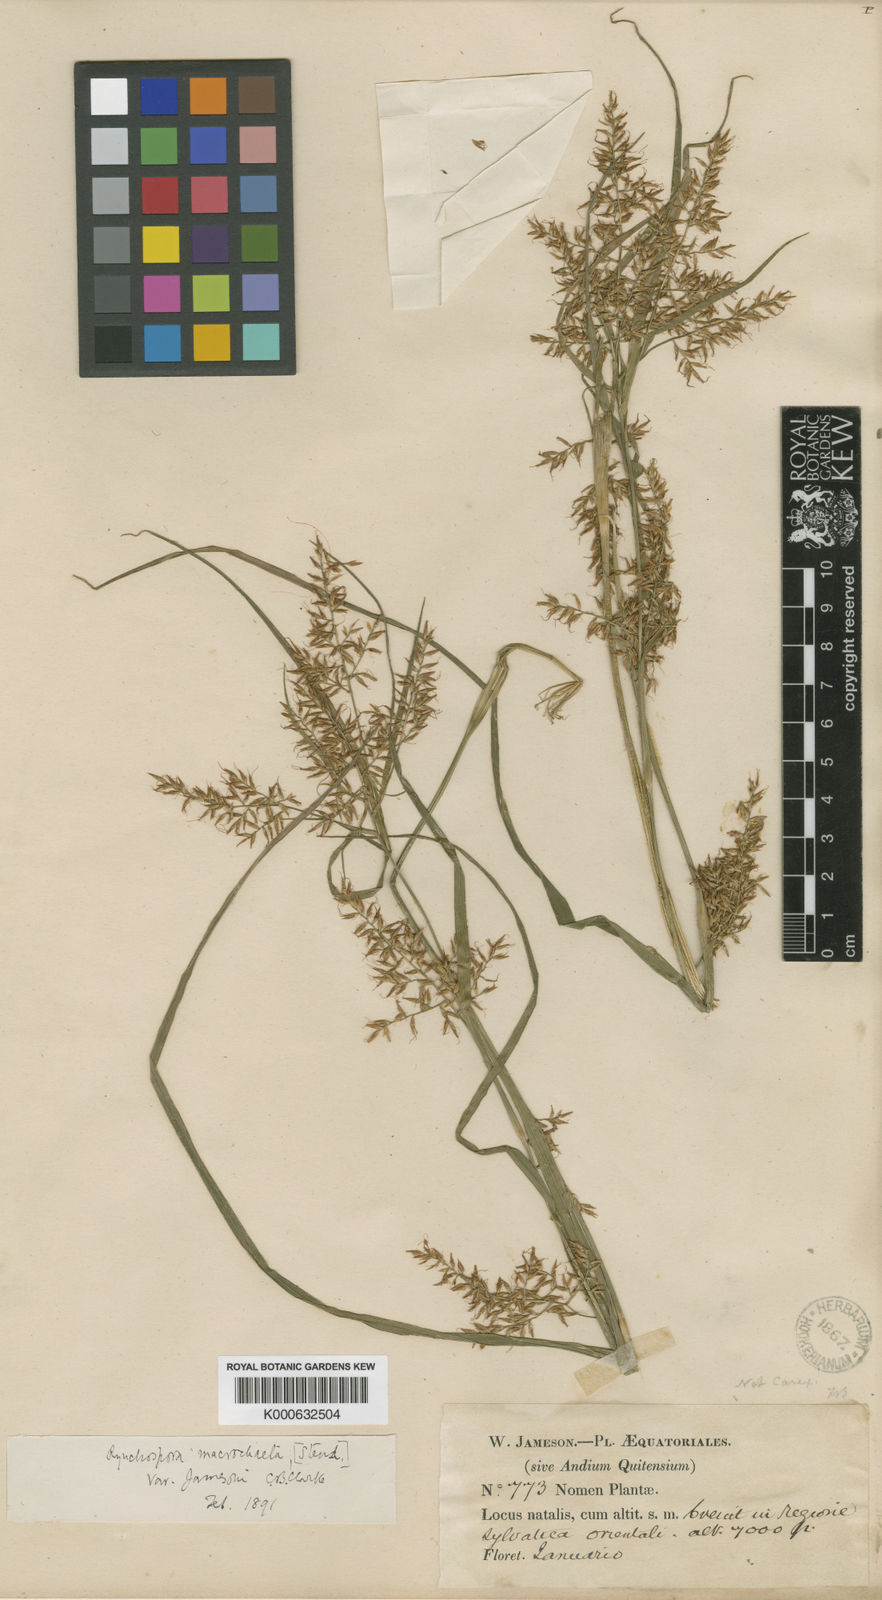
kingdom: Plantae
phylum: Tracheophyta
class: Liliopsida
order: Poales
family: Cyperaceae
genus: Rhynchospora
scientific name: Rhynchospora macrochaeta
